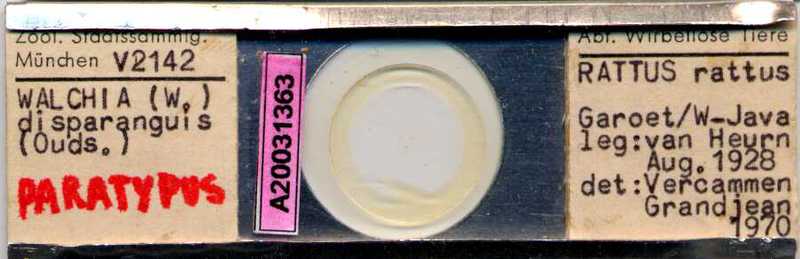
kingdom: Animalia
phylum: Arthropoda
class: Arachnida
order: Trombidiformes
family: Trombiculidae
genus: Walchia
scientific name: Walchia disparunguis
